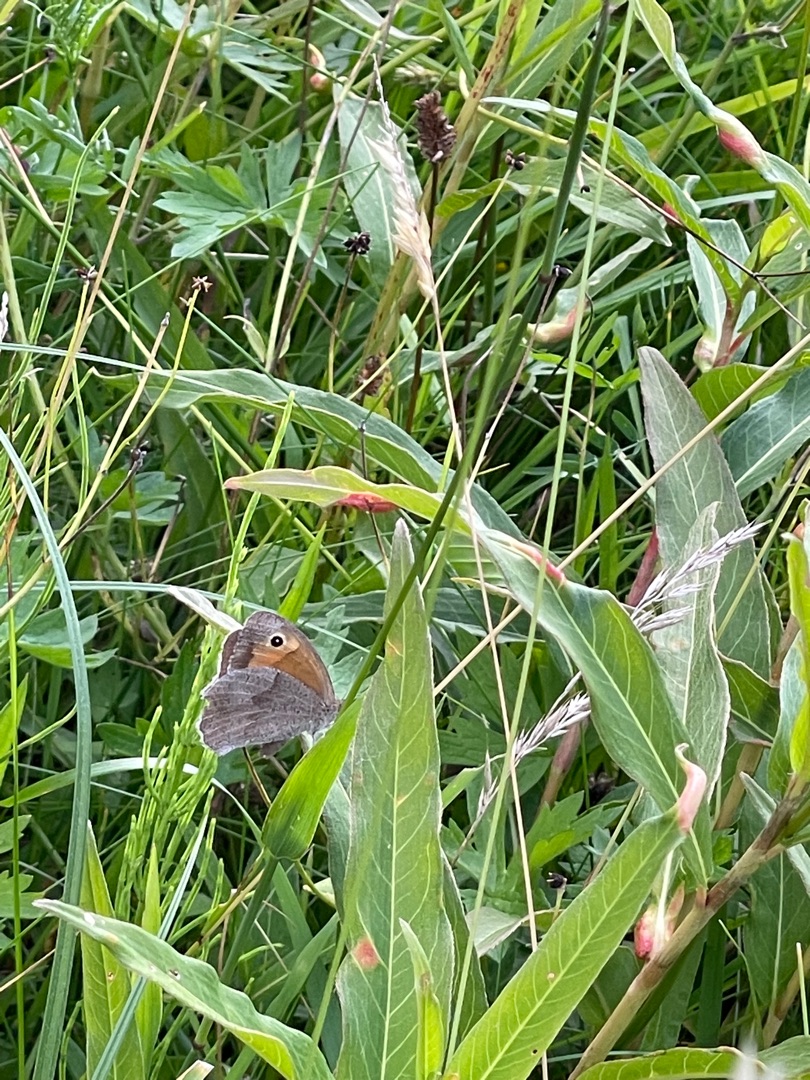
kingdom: Animalia
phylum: Arthropoda
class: Insecta
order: Lepidoptera
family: Nymphalidae
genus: Maniola
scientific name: Maniola jurtina
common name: Græsrandøje
